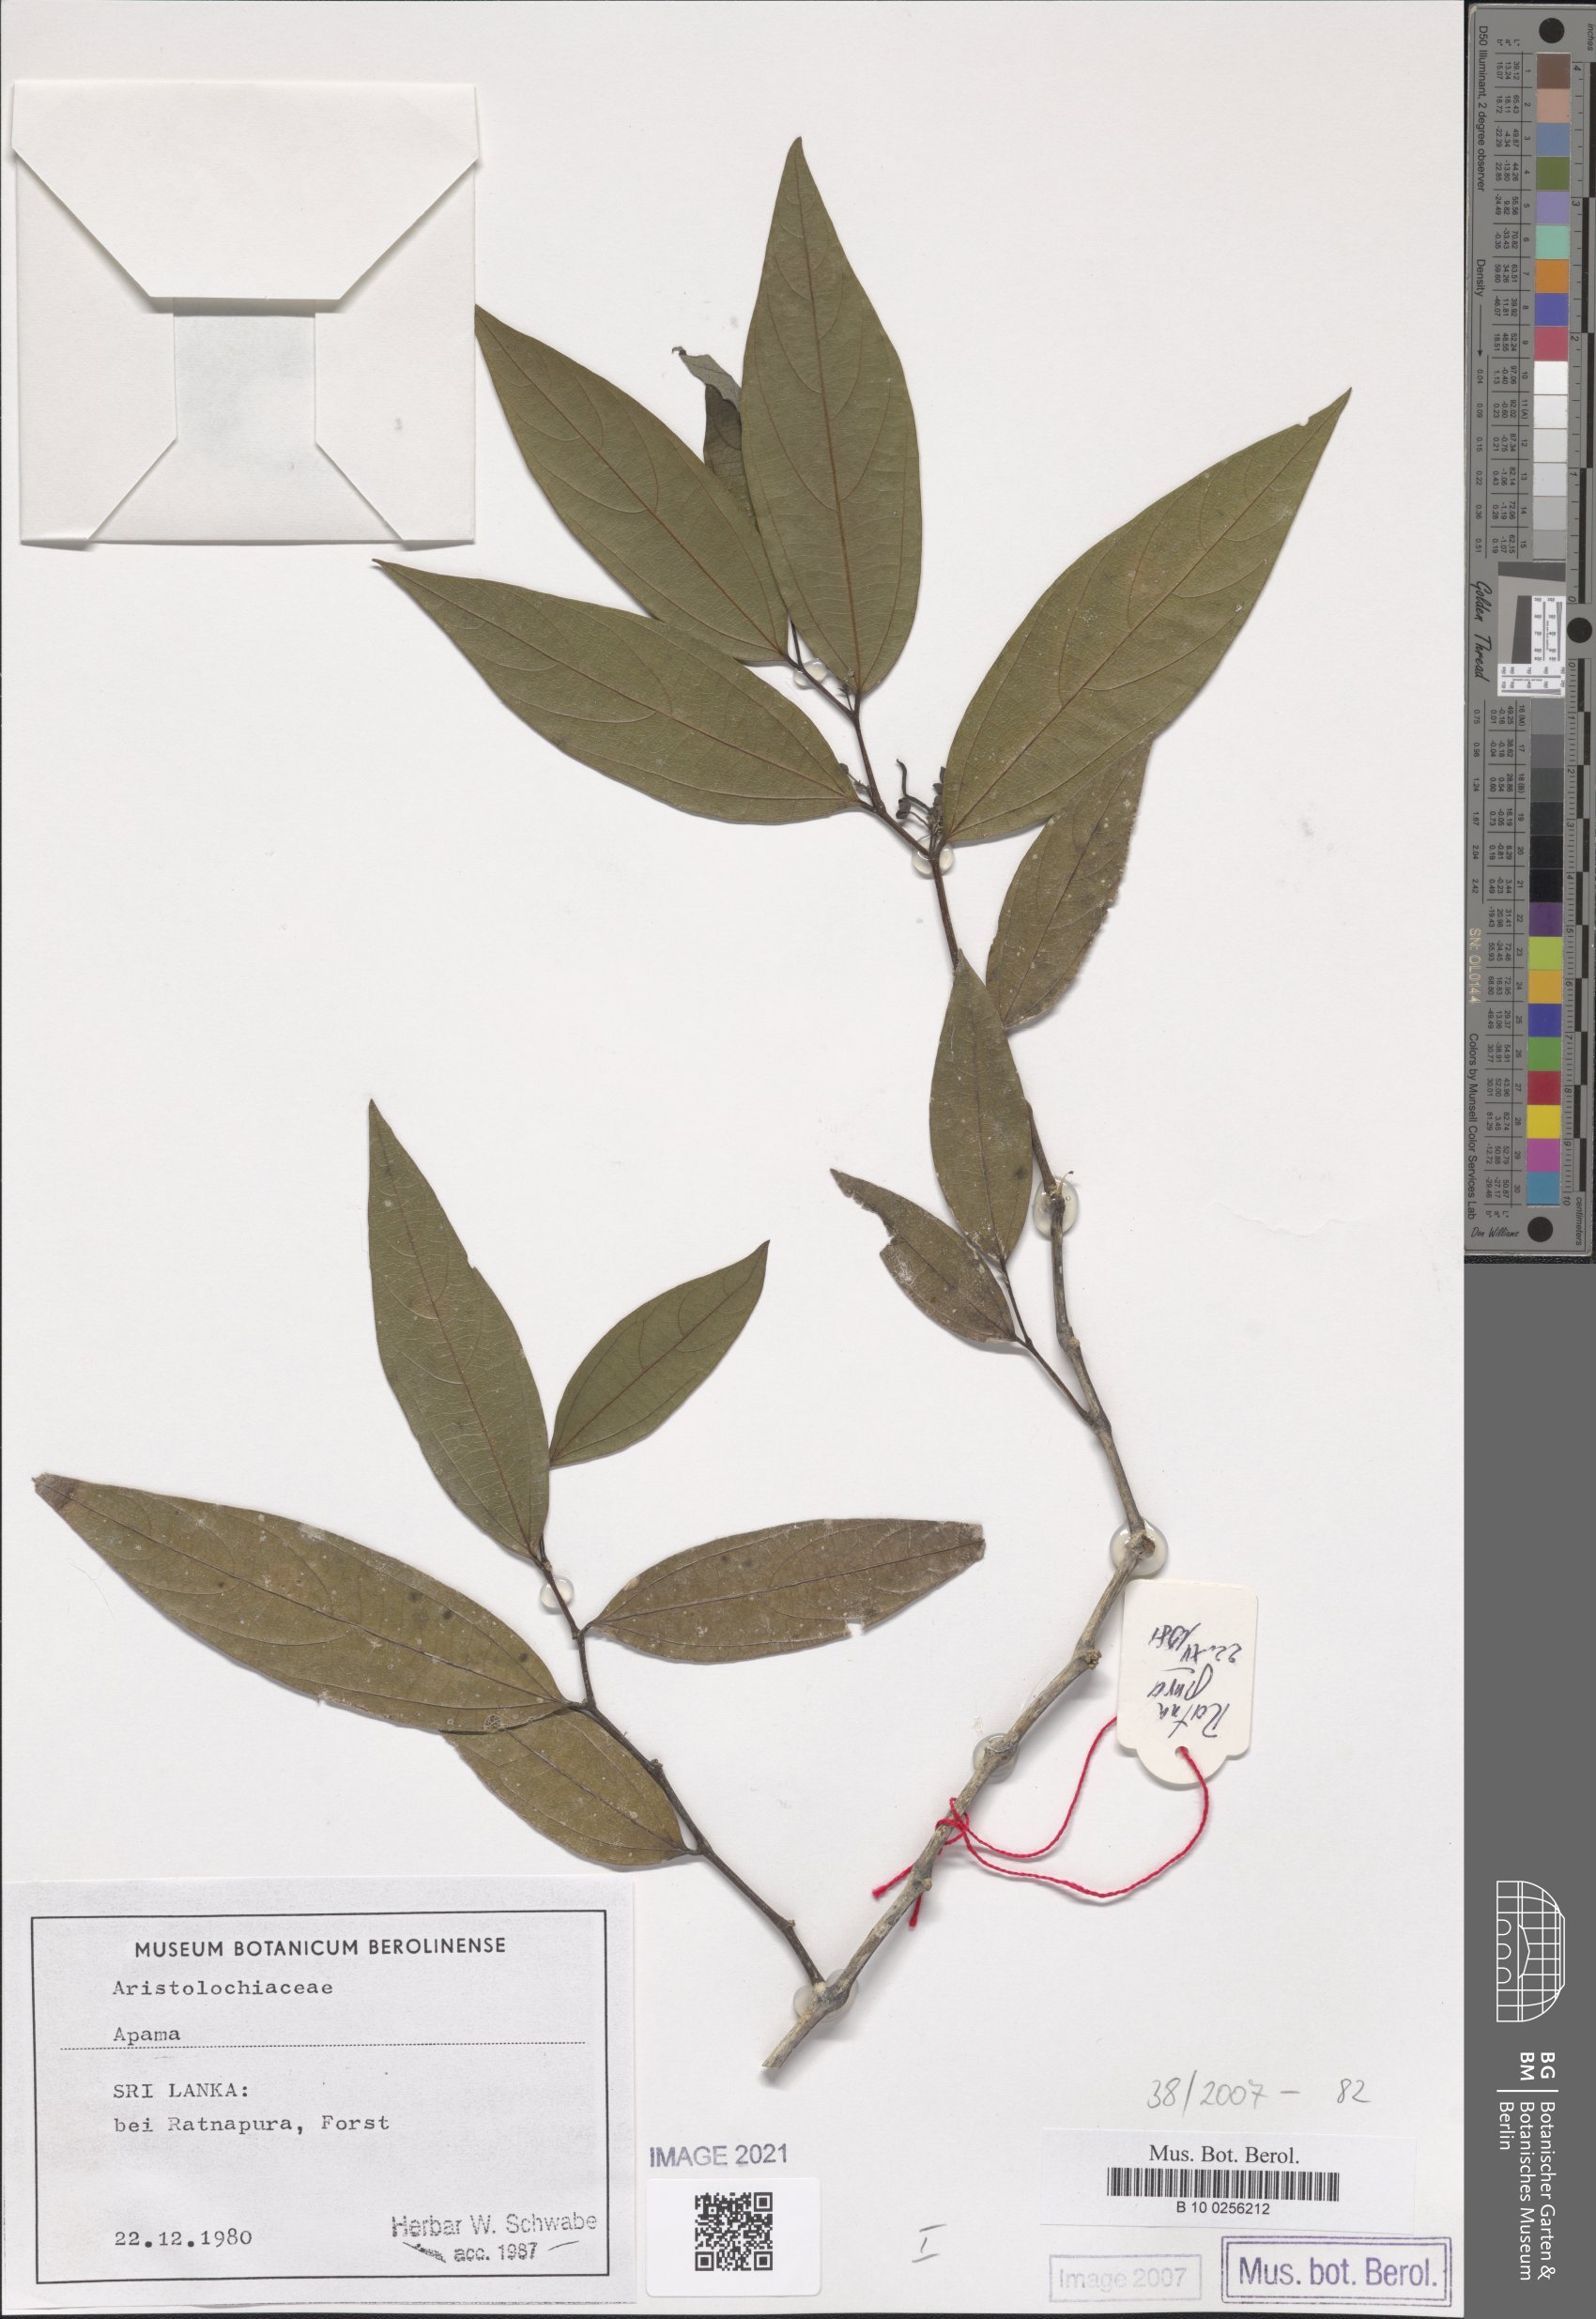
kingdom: Plantae
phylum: Tracheophyta
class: Magnoliopsida
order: Piperales
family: Aristolochiaceae
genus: Thottea
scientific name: Thottea
